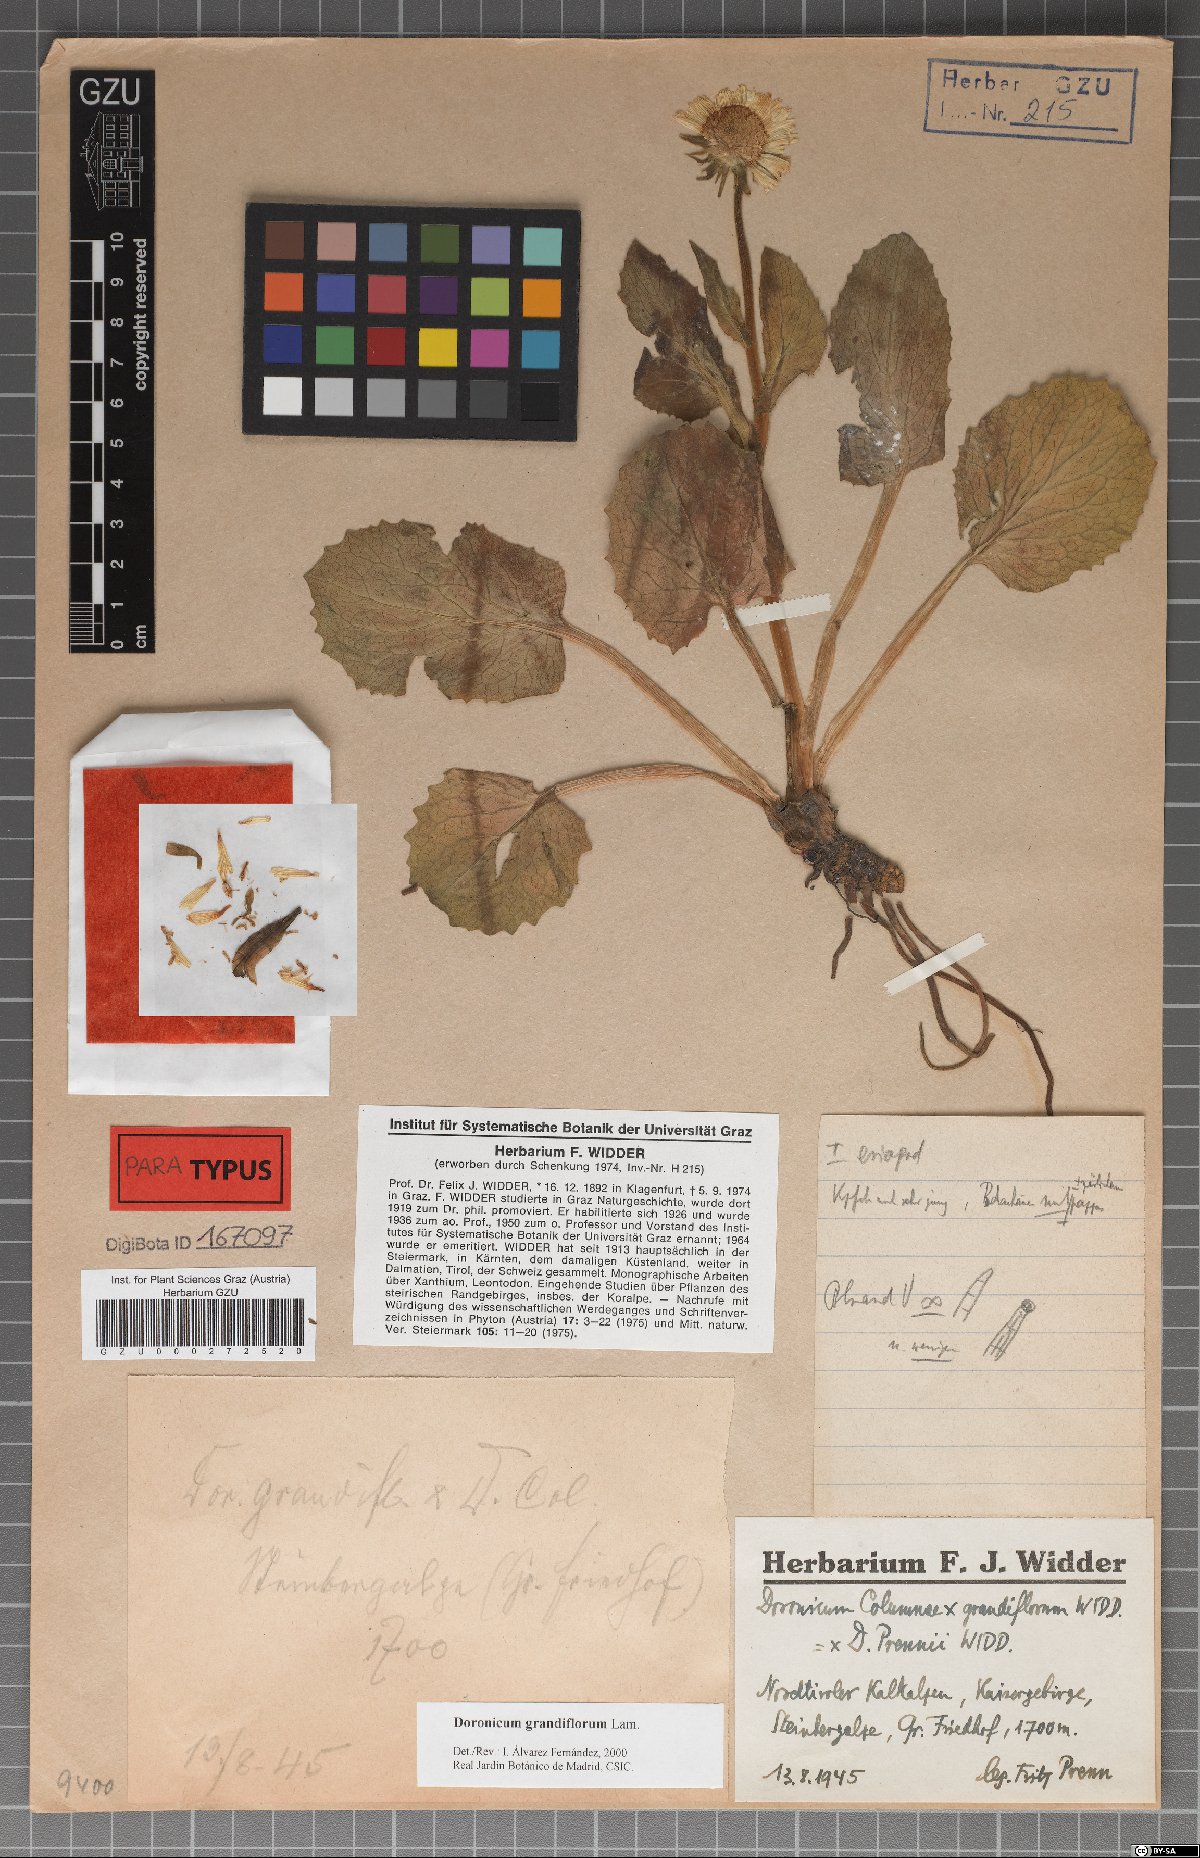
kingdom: Plantae
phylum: Tracheophyta
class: Magnoliopsida
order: Asterales
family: Asteraceae
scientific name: Asteraceae
